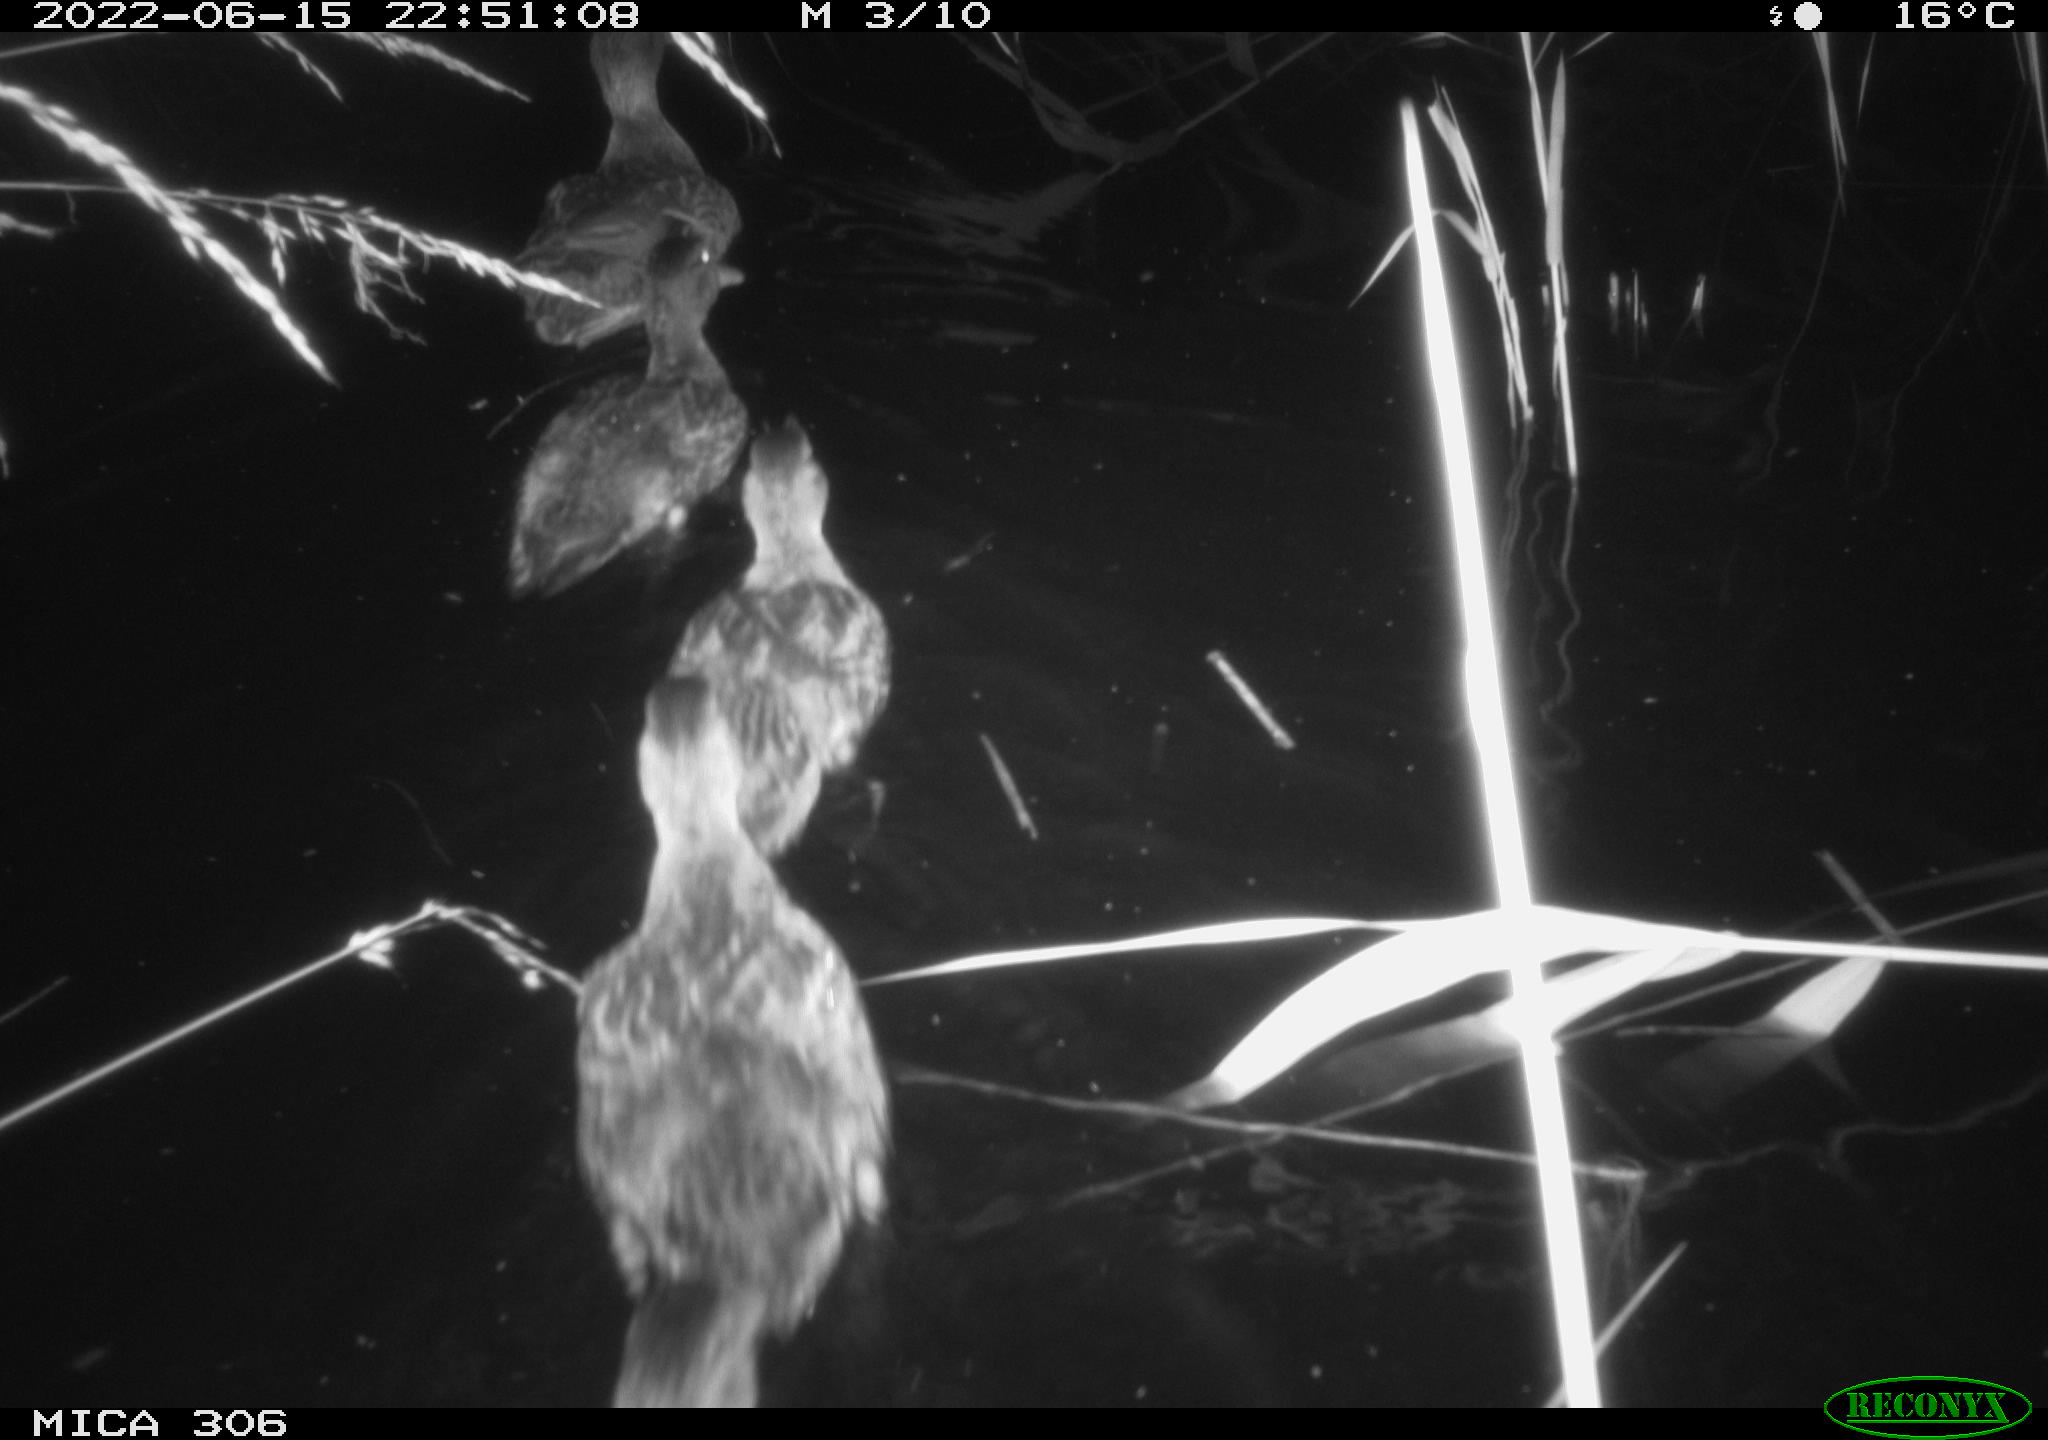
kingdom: Animalia
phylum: Chordata
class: Aves
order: Anseriformes
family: Anatidae
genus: Anas
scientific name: Anas platyrhynchos
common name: Mallard
